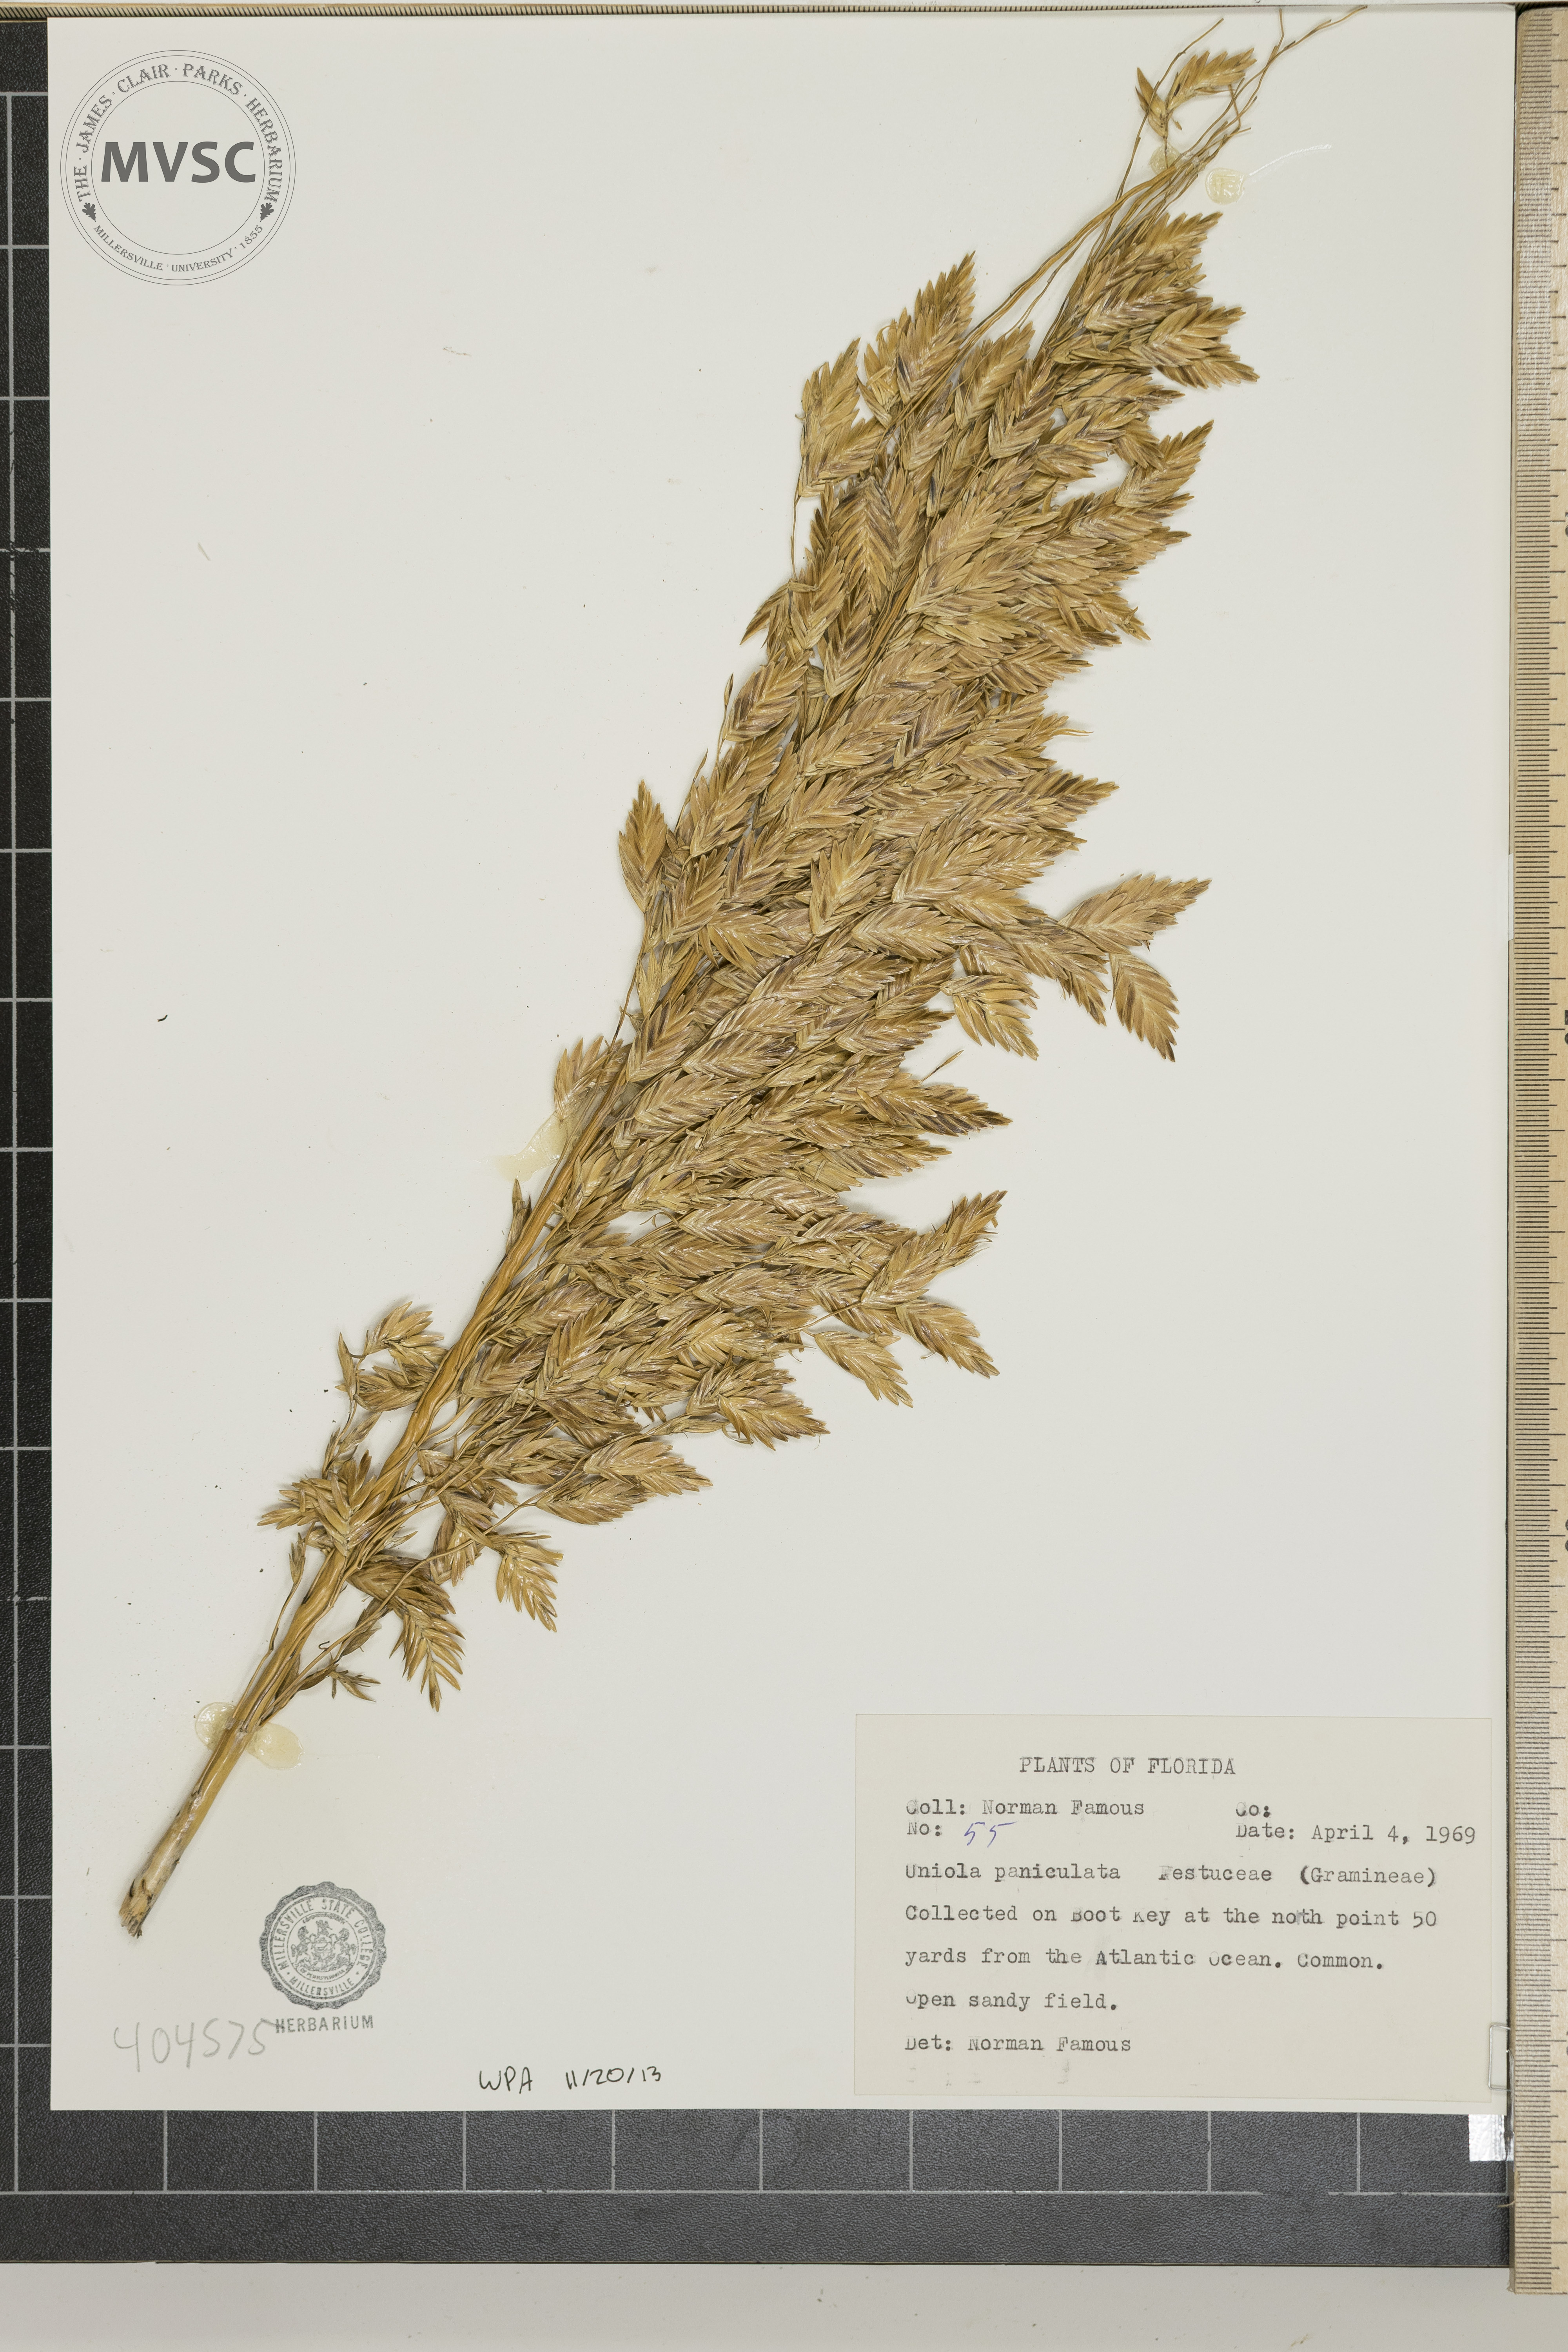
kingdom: Plantae
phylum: Tracheophyta
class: Liliopsida
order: Poales
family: Poaceae
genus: Uniola
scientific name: Uniola paniculata
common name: Seaside-oats
